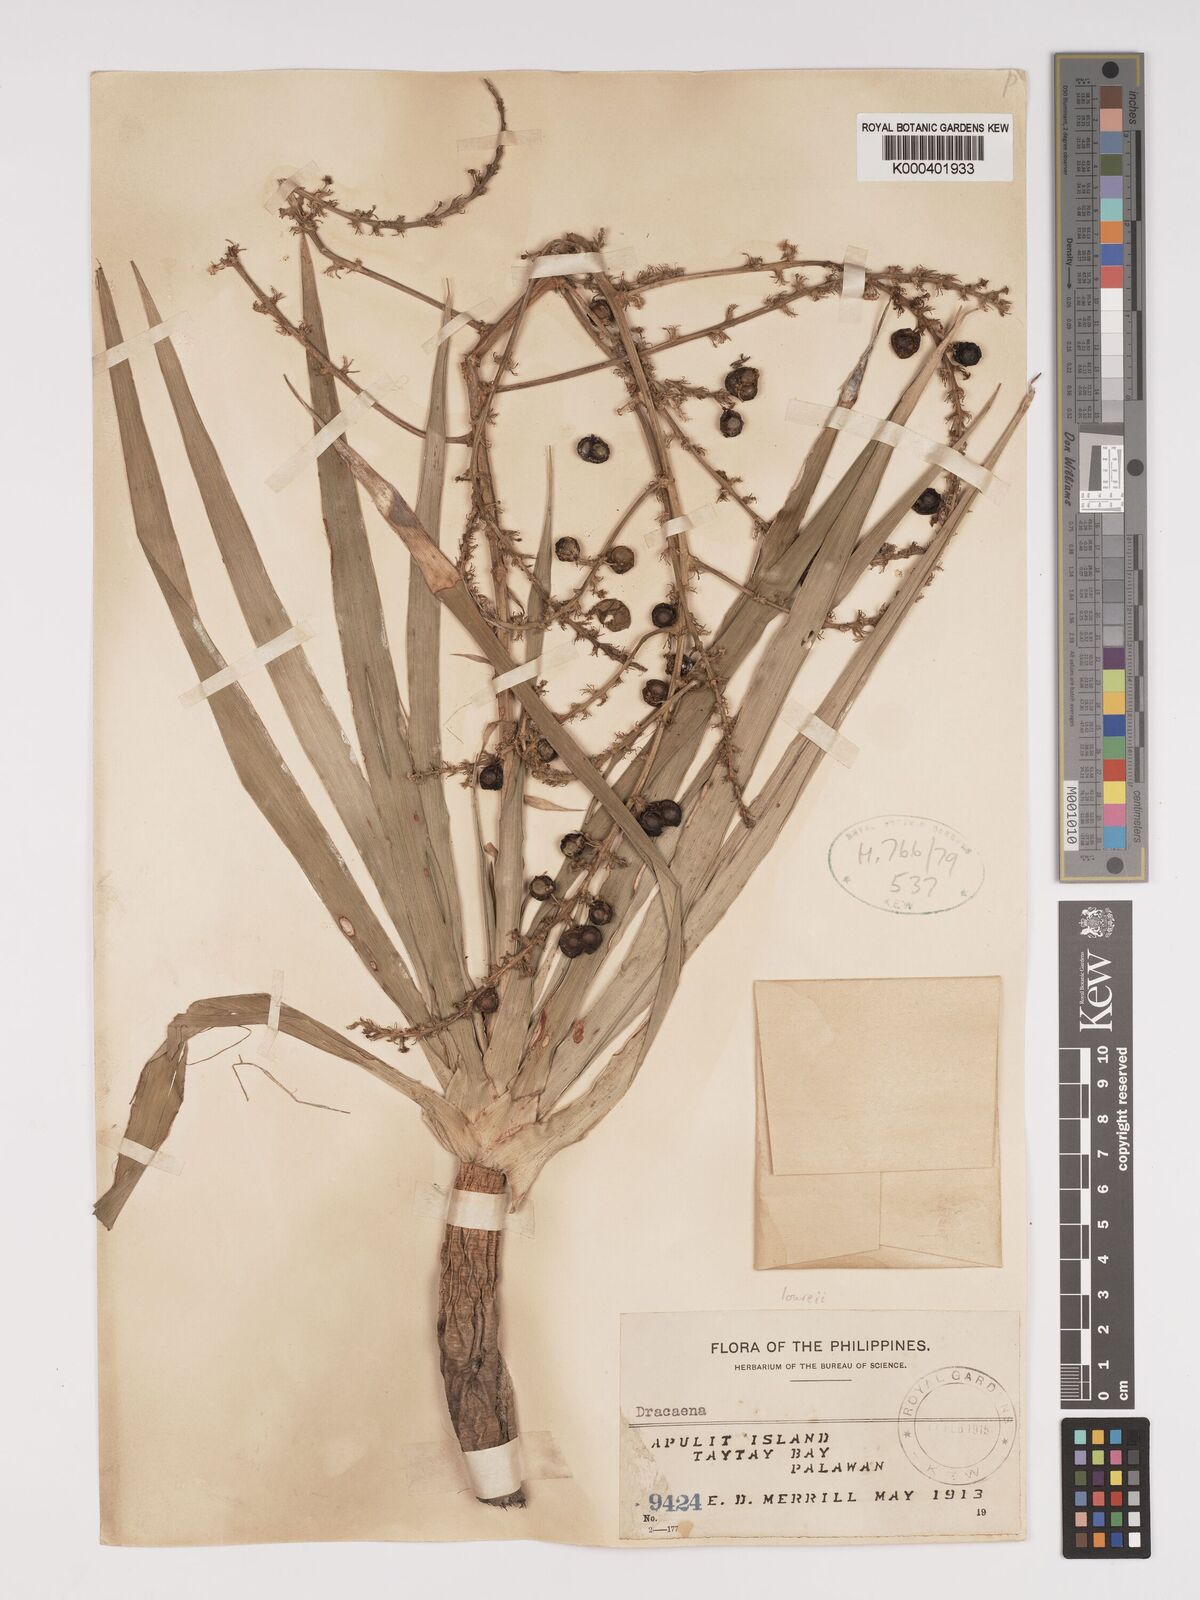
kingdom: Plantae
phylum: Tracheophyta
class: Liliopsida
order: Asparagales
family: Asparagaceae
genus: Dracaena
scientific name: Dracaena
